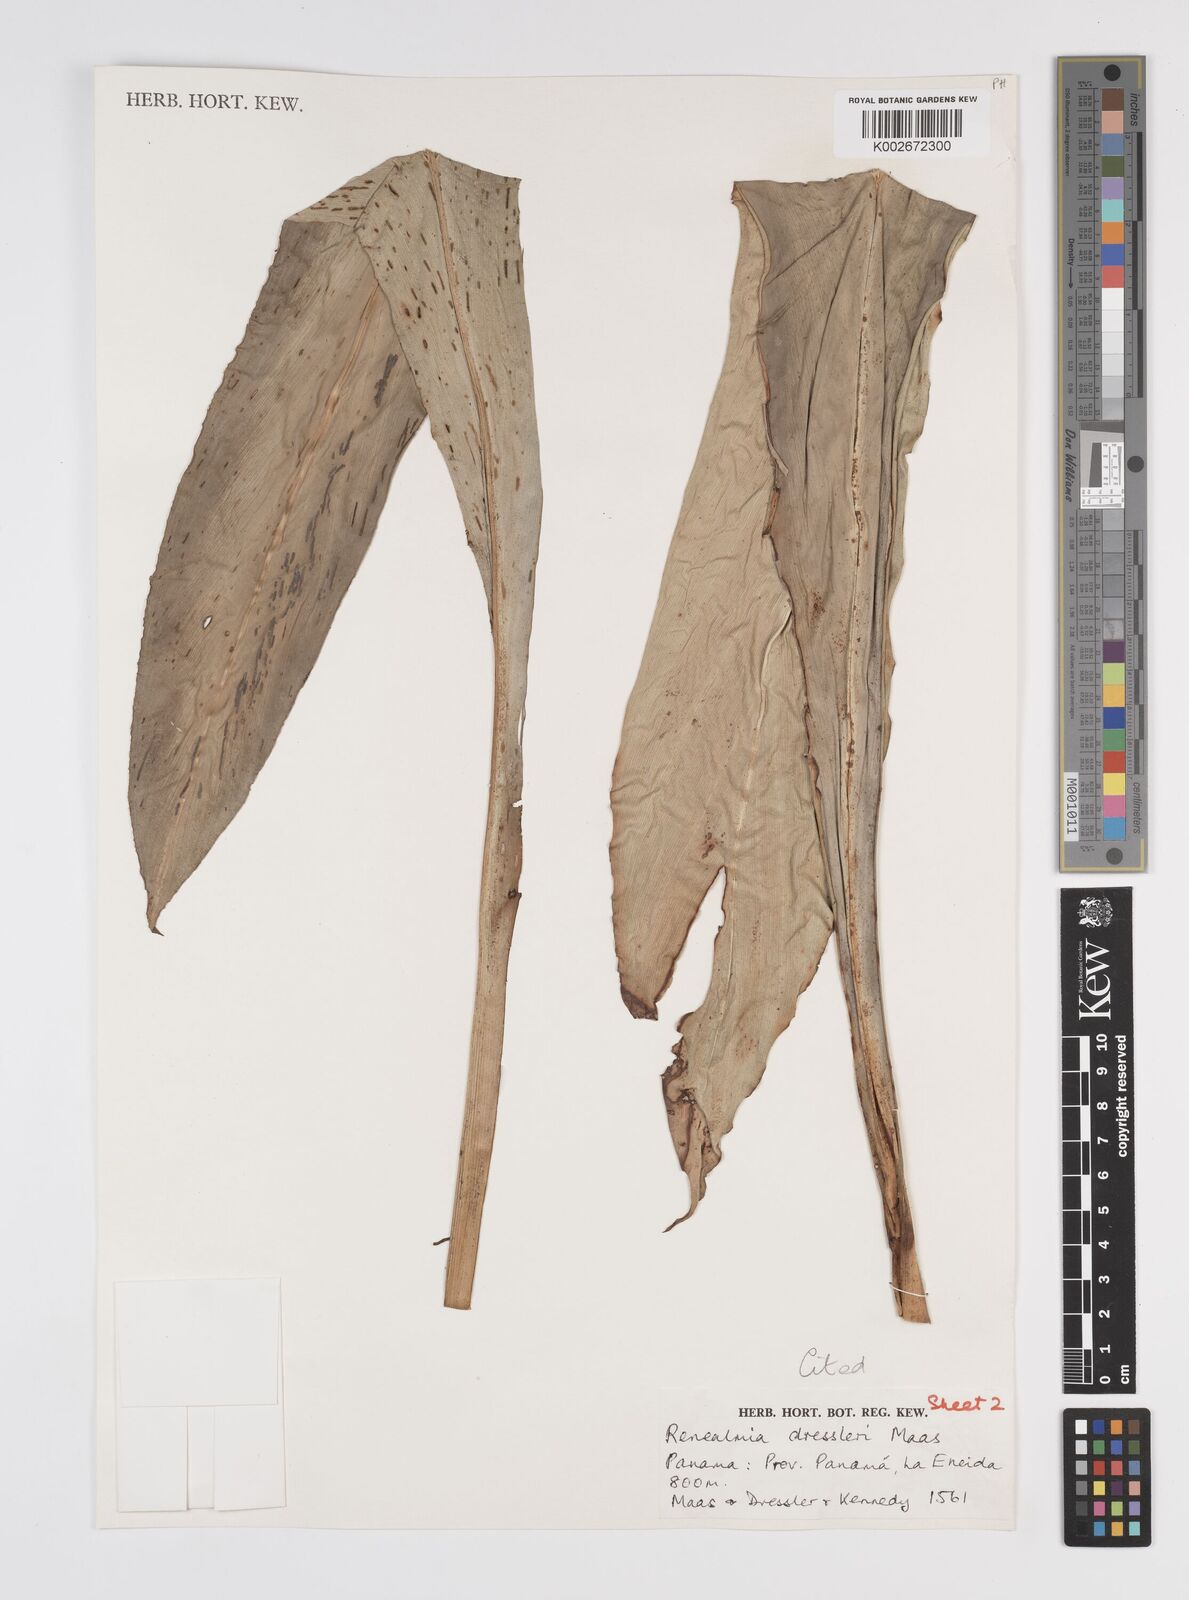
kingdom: Plantae
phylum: Tracheophyta
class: Liliopsida
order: Zingiberales
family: Zingiberaceae
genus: Renealmia
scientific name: Renealmia dressleri
